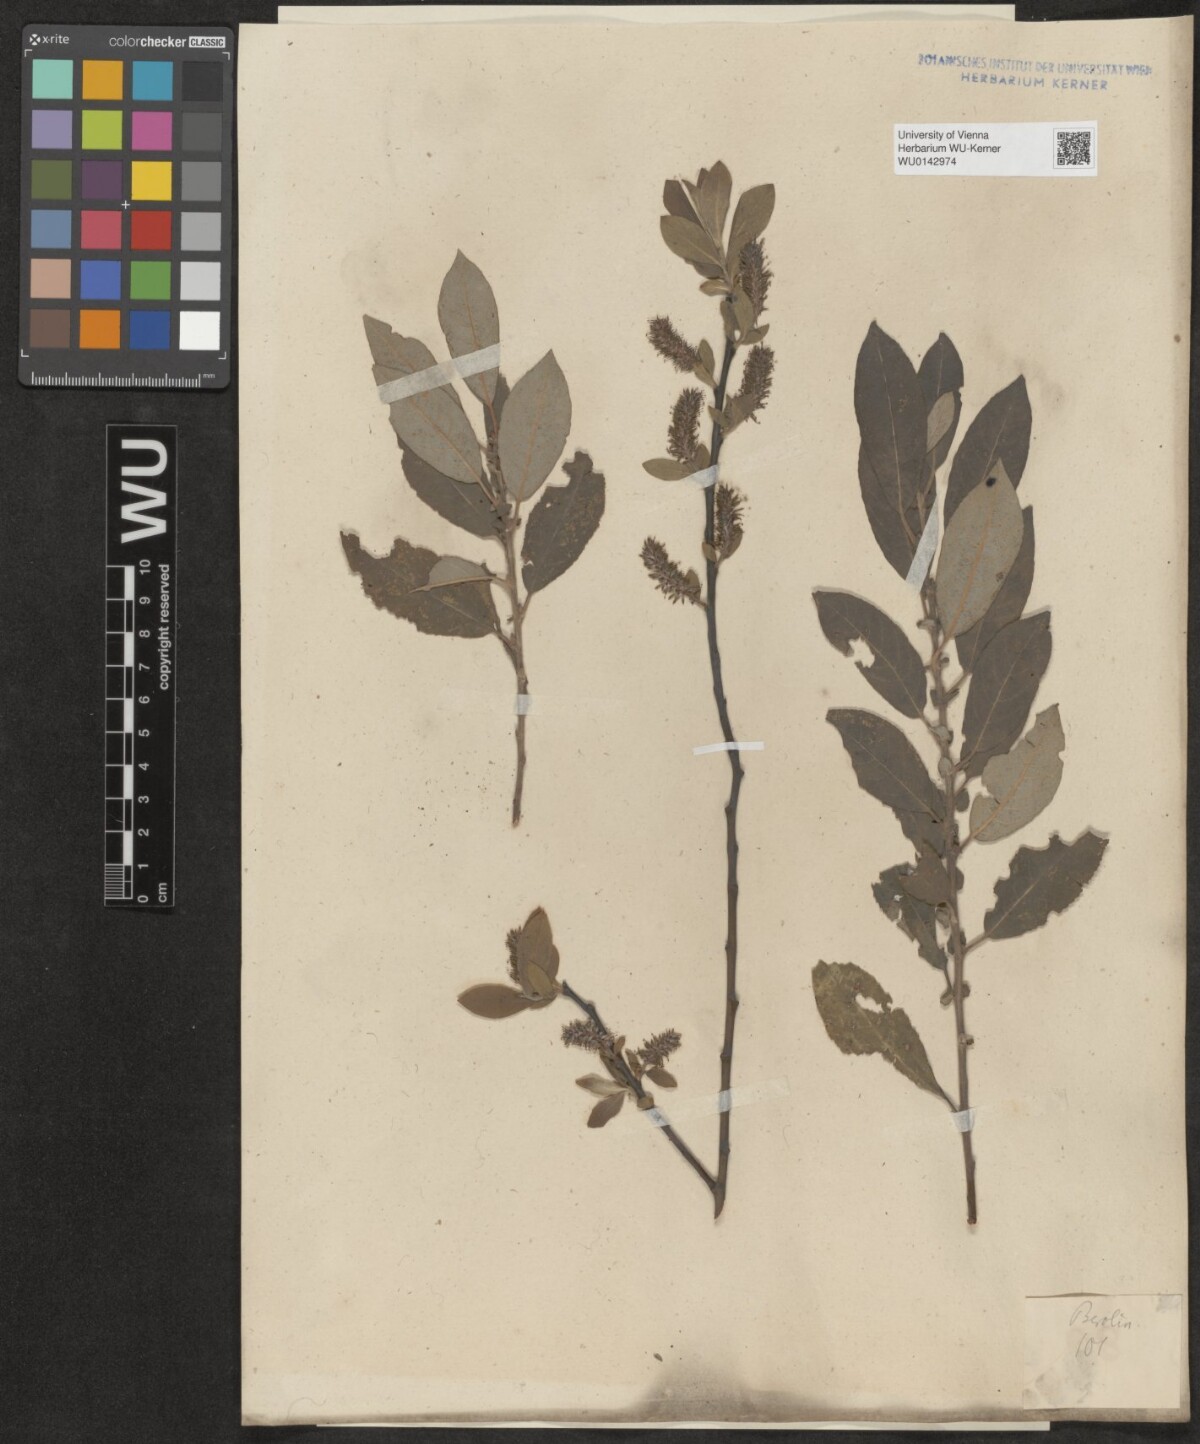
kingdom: Plantae
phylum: Tracheophyta
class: Magnoliopsida
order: Malpighiales
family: Salicaceae
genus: Salix
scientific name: Salix myrsinifolia
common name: Dark-leaved willow
